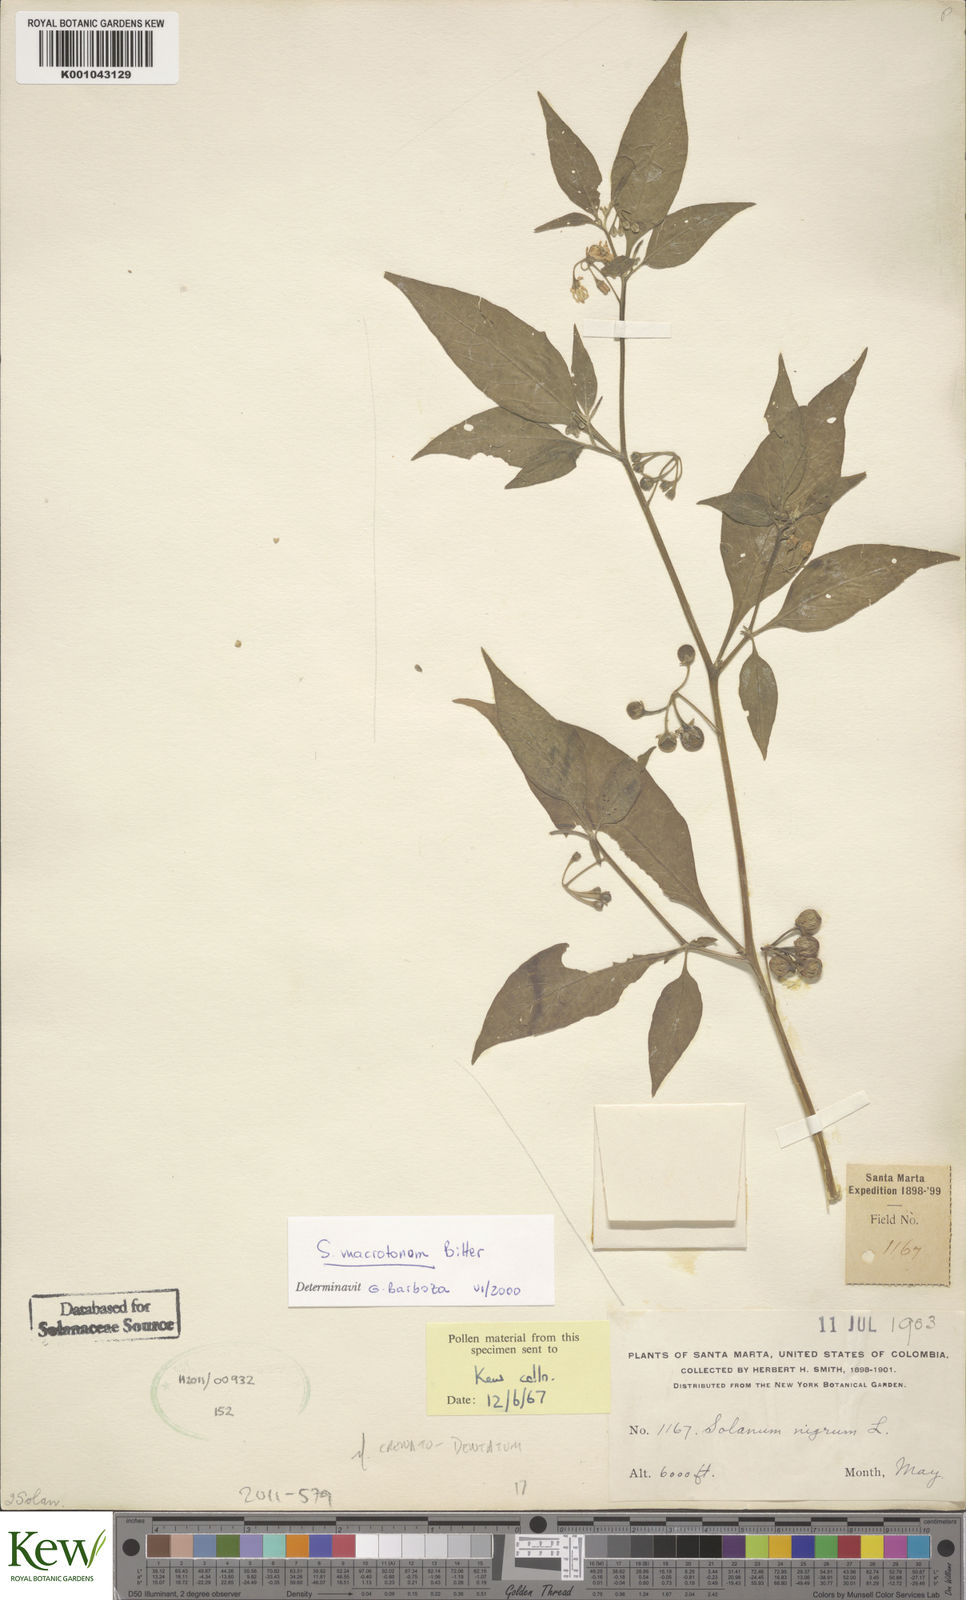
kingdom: Plantae
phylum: Tracheophyta
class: Magnoliopsida
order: Solanales
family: Solanaceae
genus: Solanum
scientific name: Solanum macrotonum
